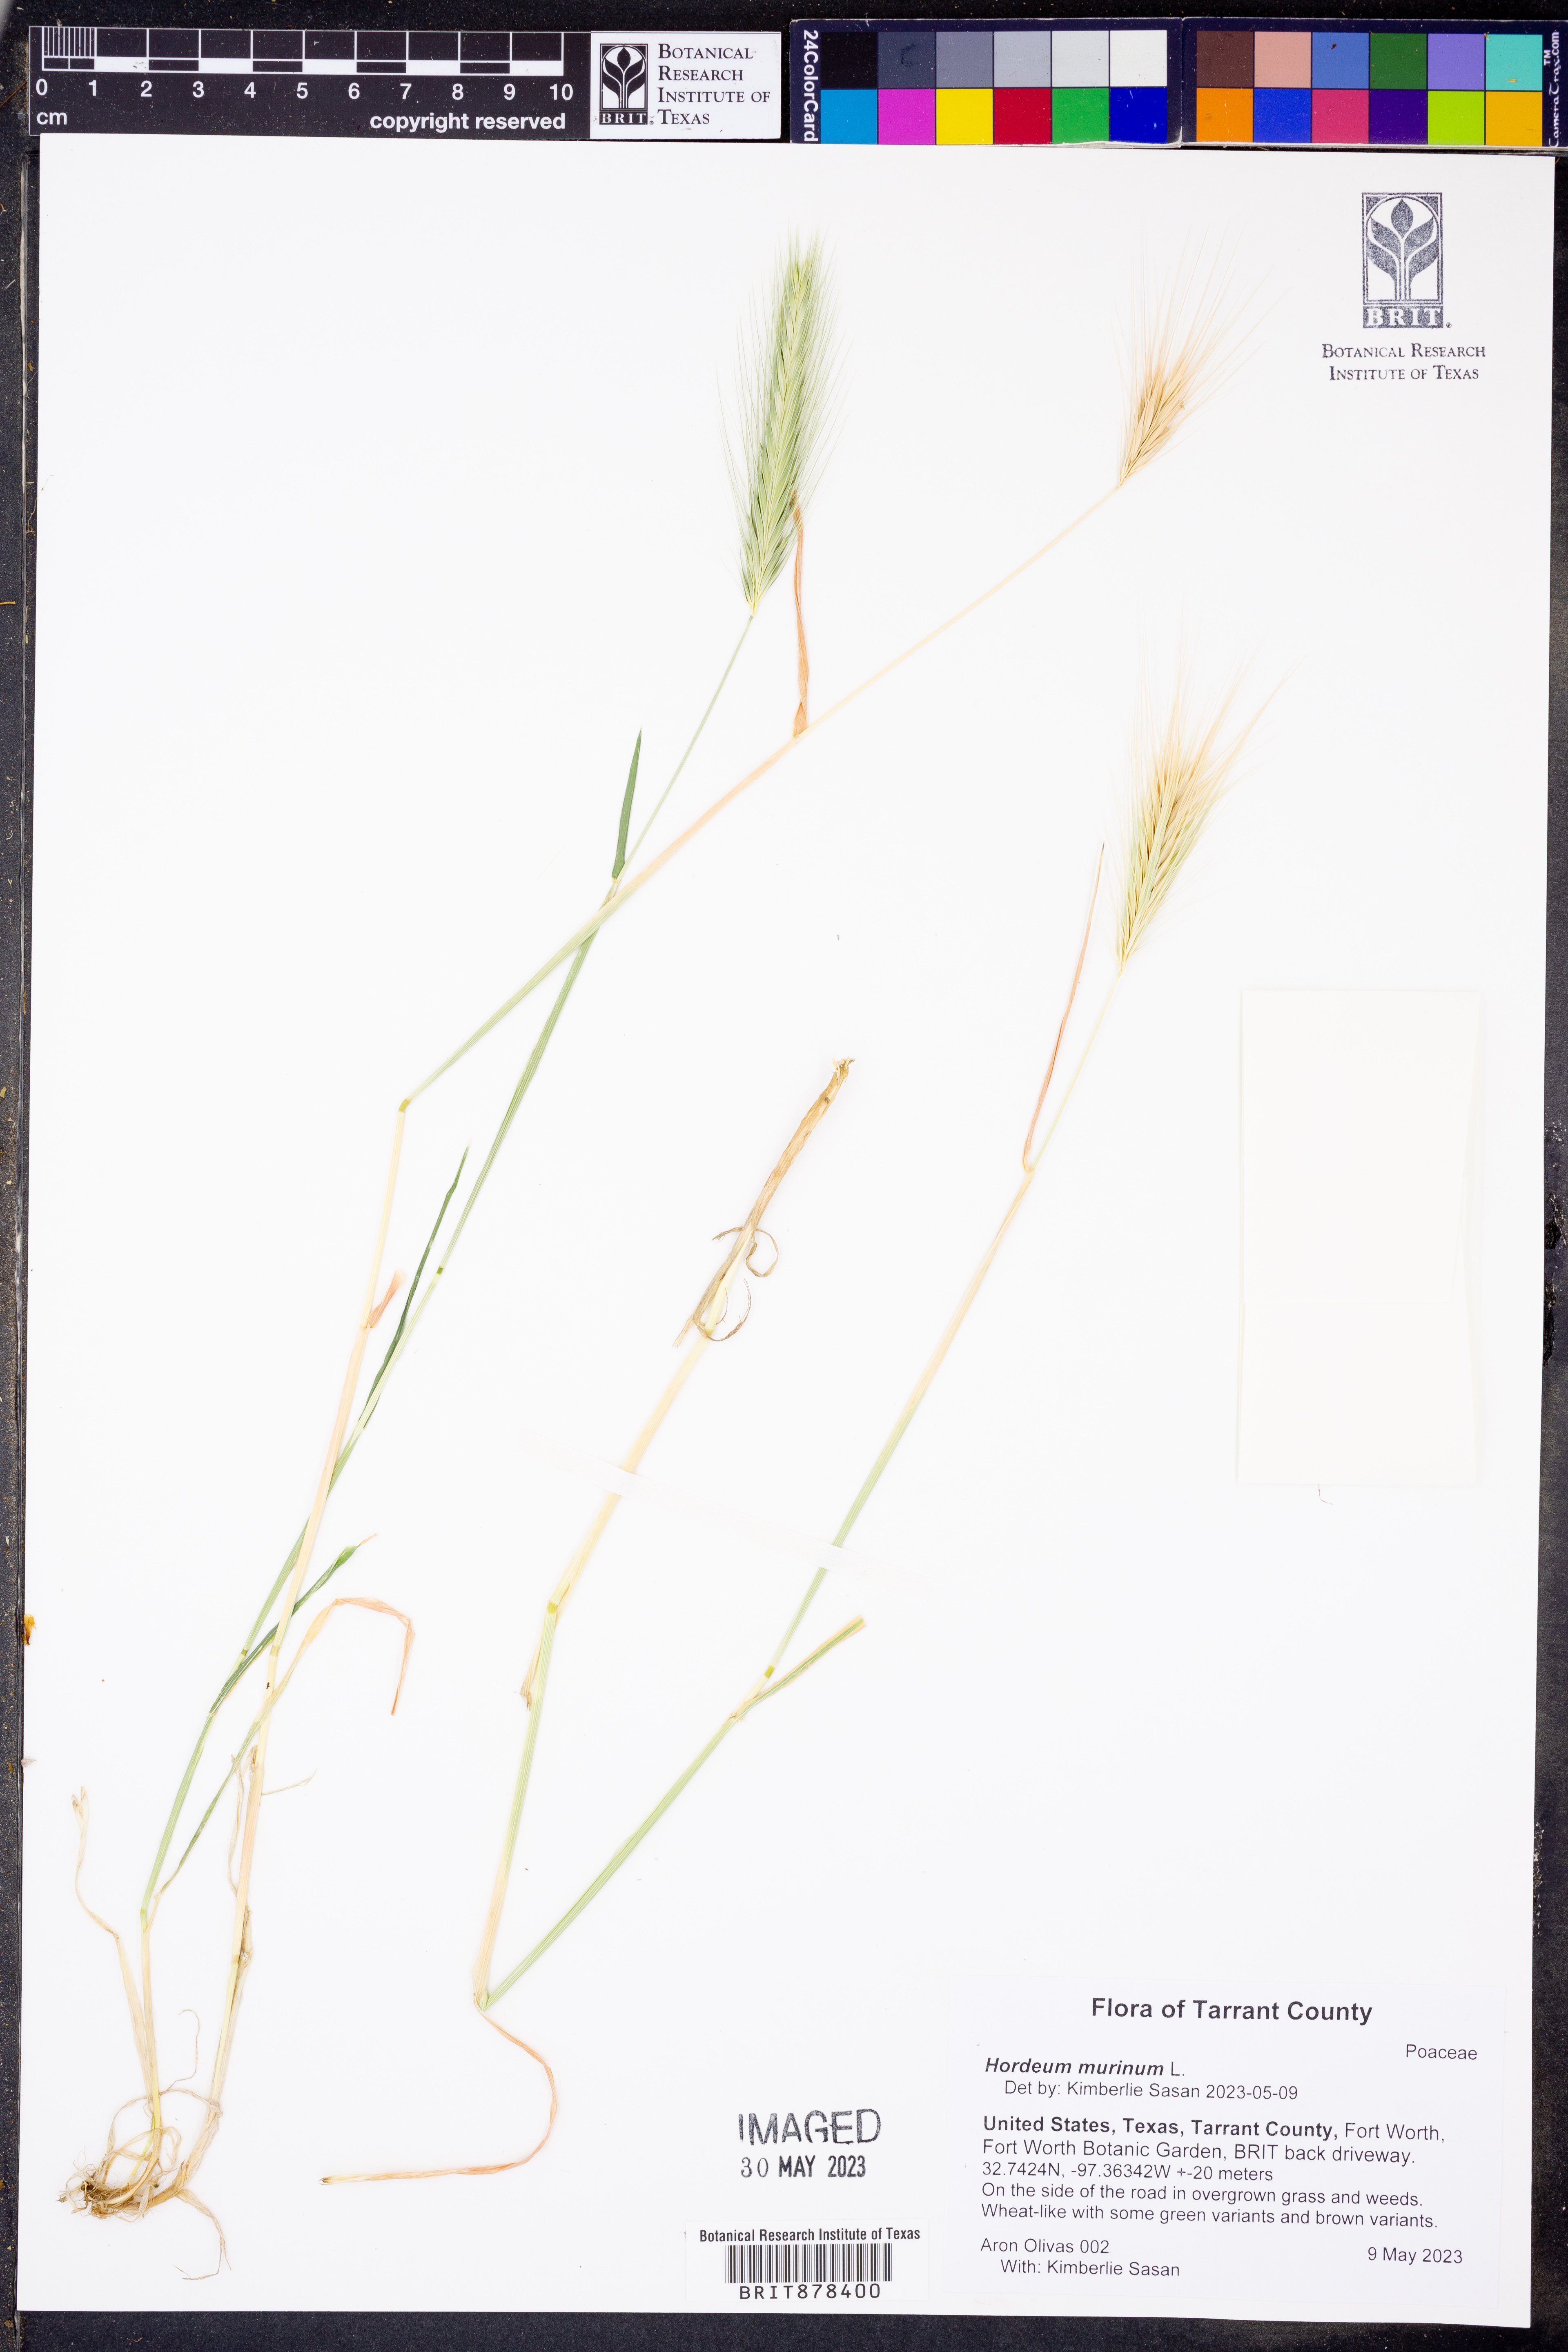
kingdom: Plantae
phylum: Tracheophyta
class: Liliopsida
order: Poales
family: Poaceae
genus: Hordeum
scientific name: Hordeum murinum
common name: Wall barley
